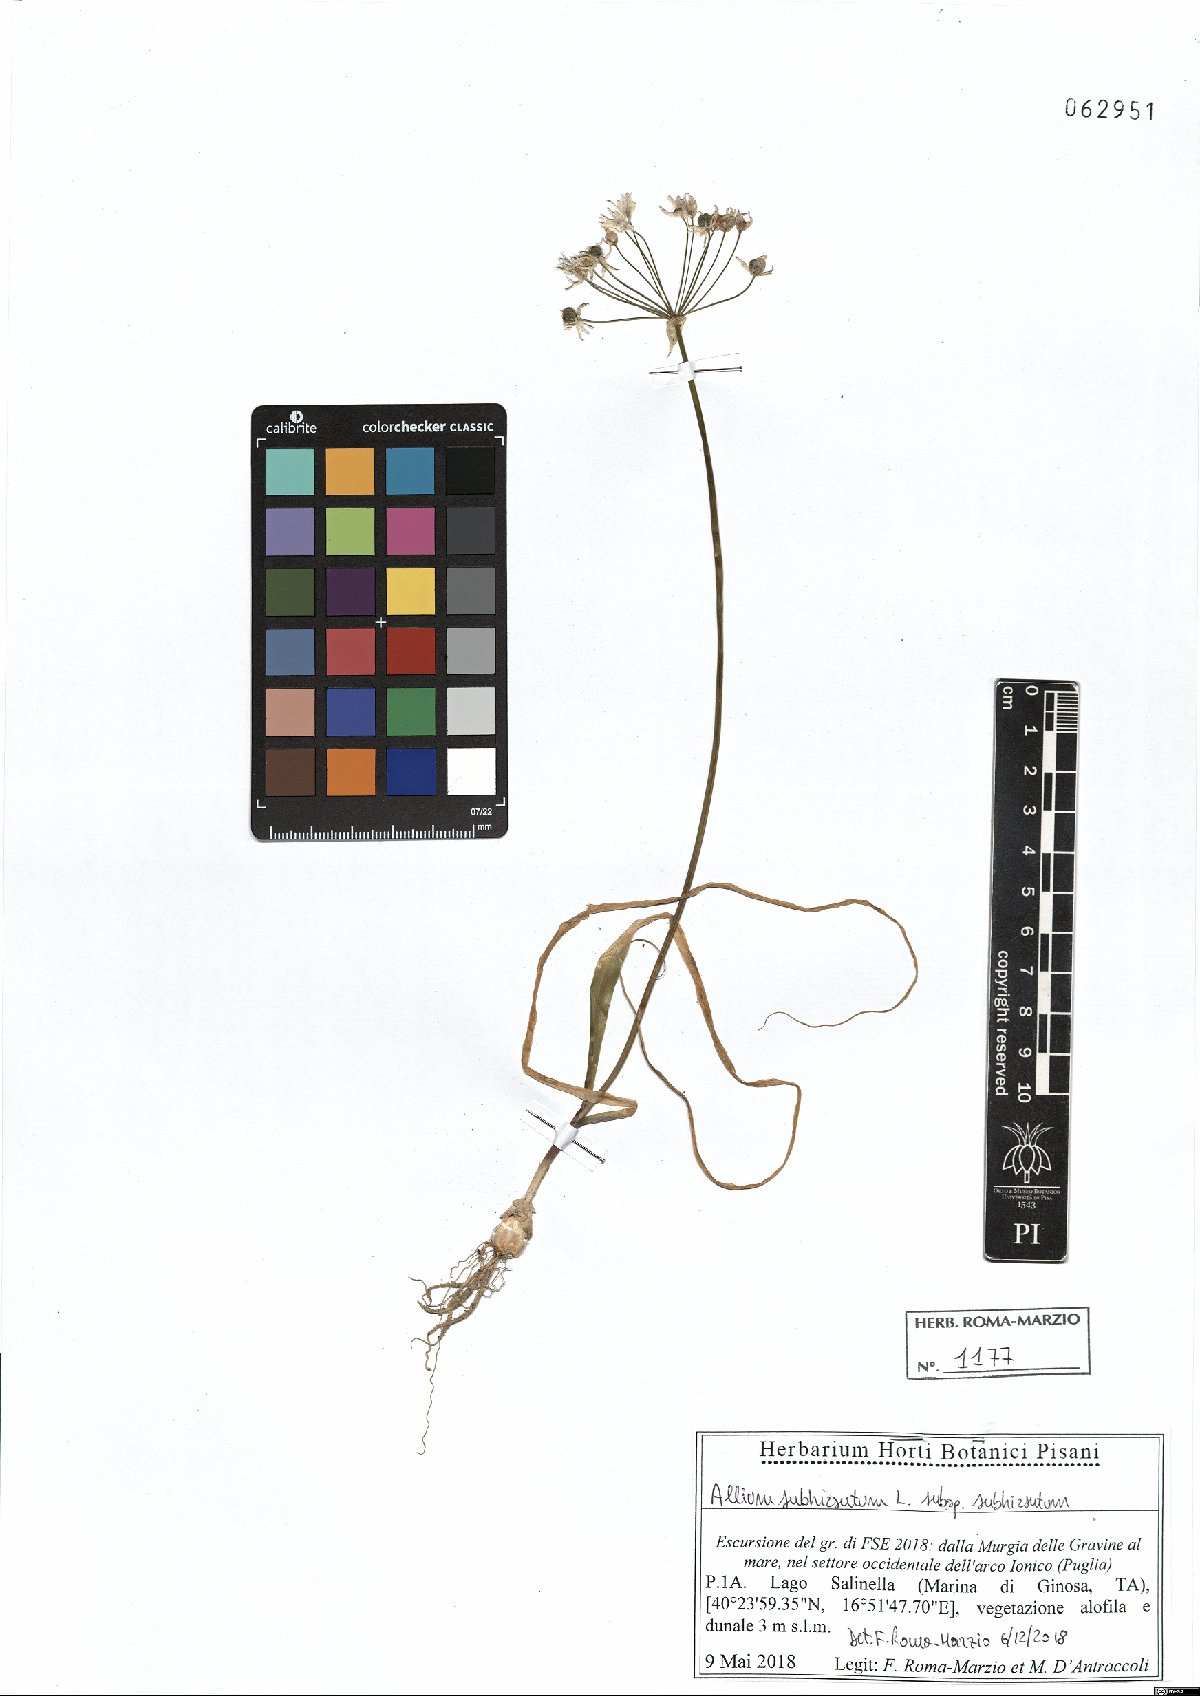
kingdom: Plantae
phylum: Tracheophyta
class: Liliopsida
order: Asparagales
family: Amaryllidaceae
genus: Allium
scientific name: Allium subhirsutum
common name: Hairy garlic
